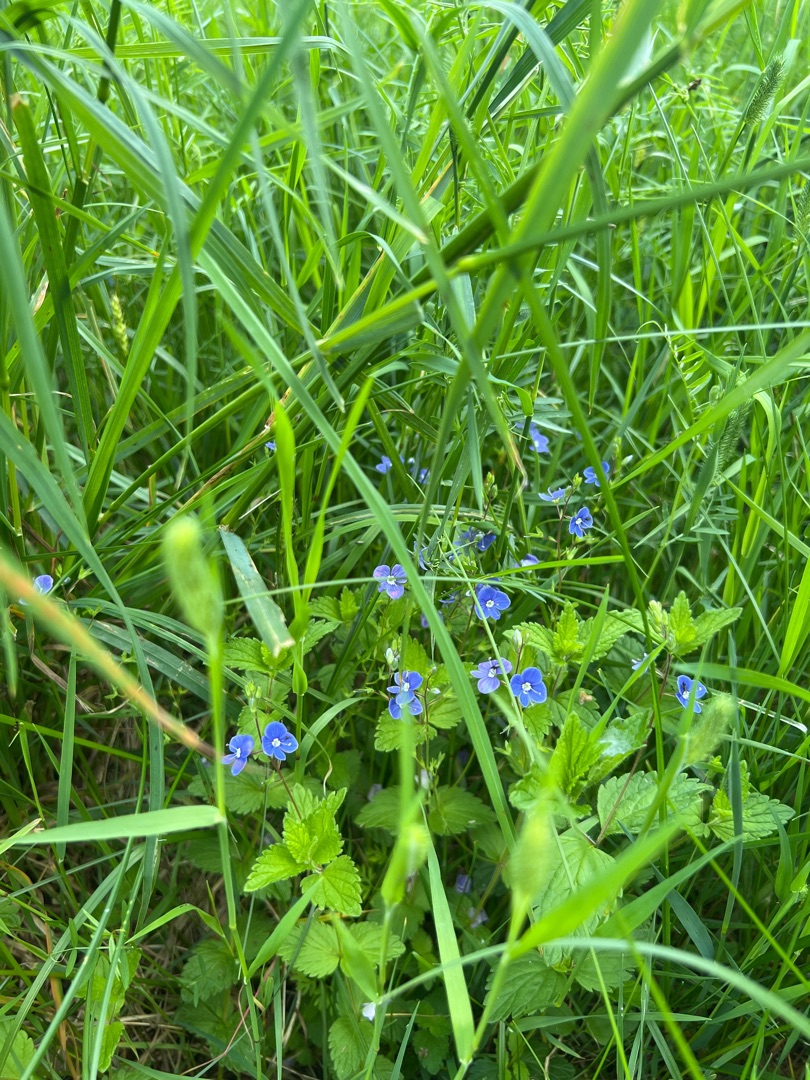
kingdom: Plantae
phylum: Tracheophyta
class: Magnoliopsida
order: Lamiales
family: Plantaginaceae
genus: Veronica
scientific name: Veronica chamaedrys
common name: Tveskægget ærenpris
